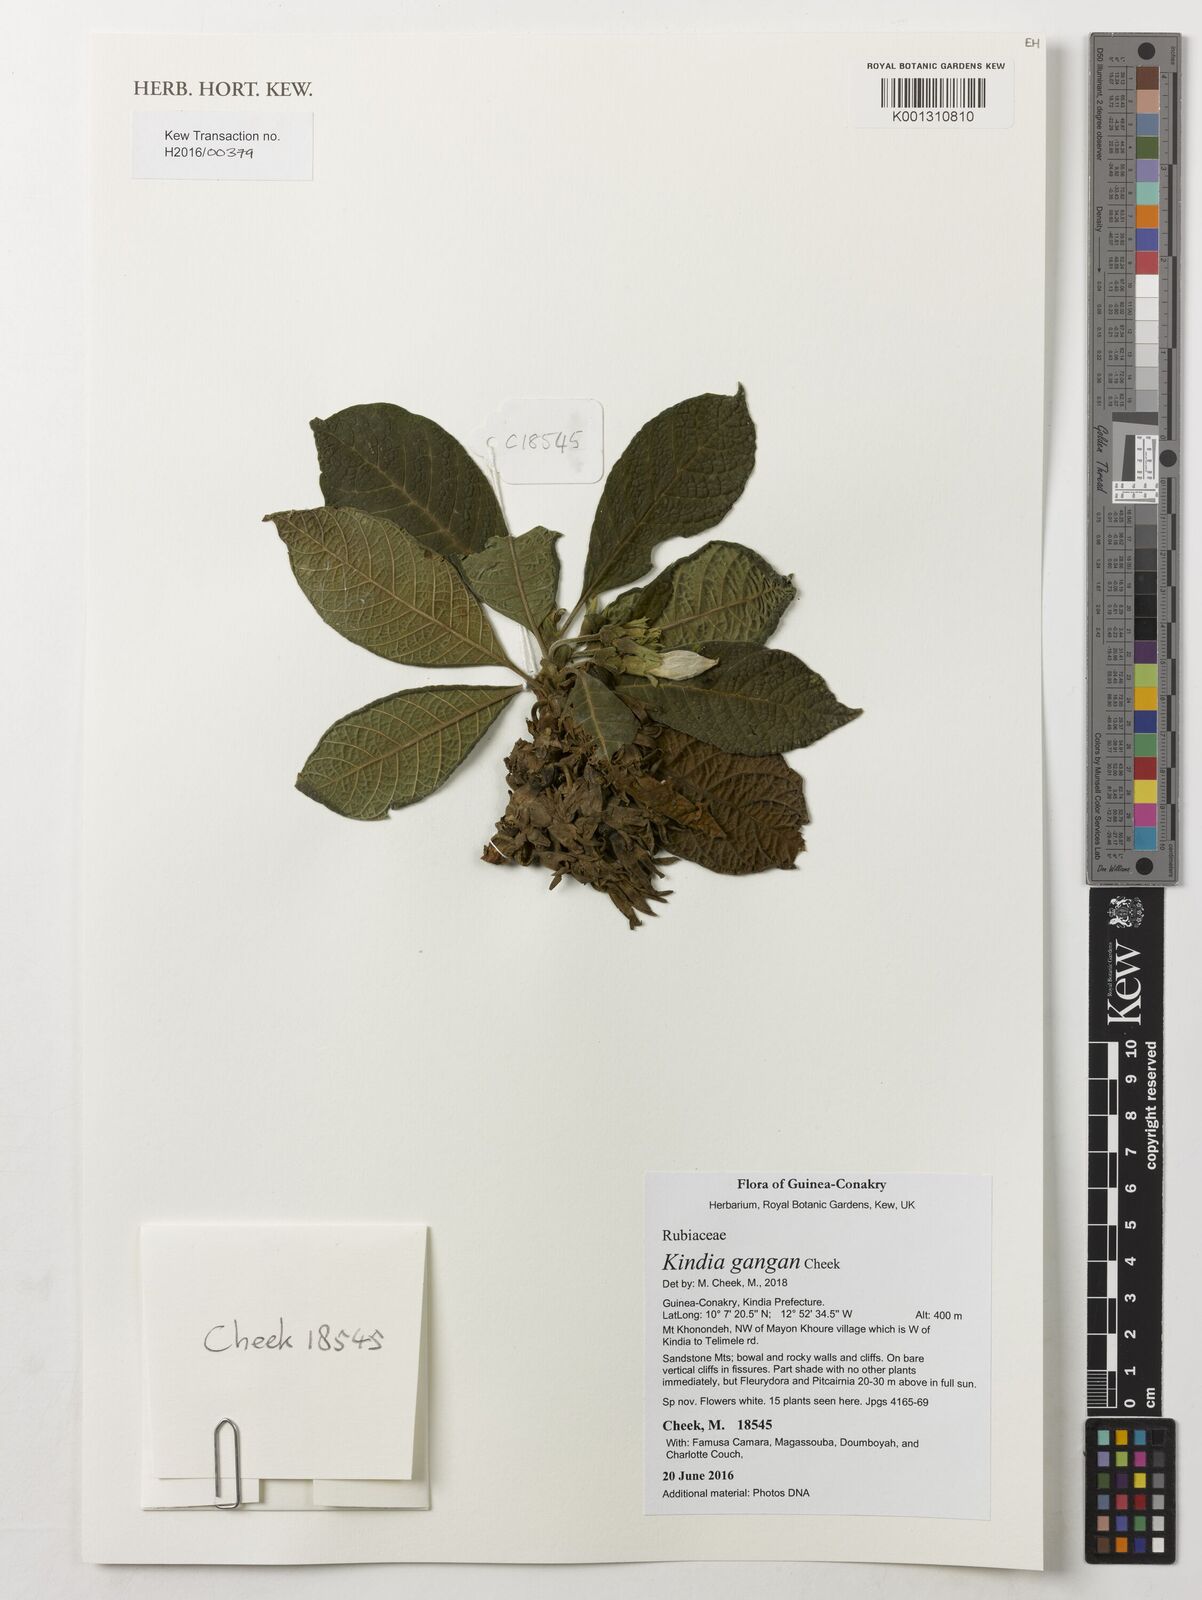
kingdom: Plantae
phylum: Tracheophyta
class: Magnoliopsida
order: Gentianales
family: Rubiaceae
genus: Kindia
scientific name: Kindia gangan
